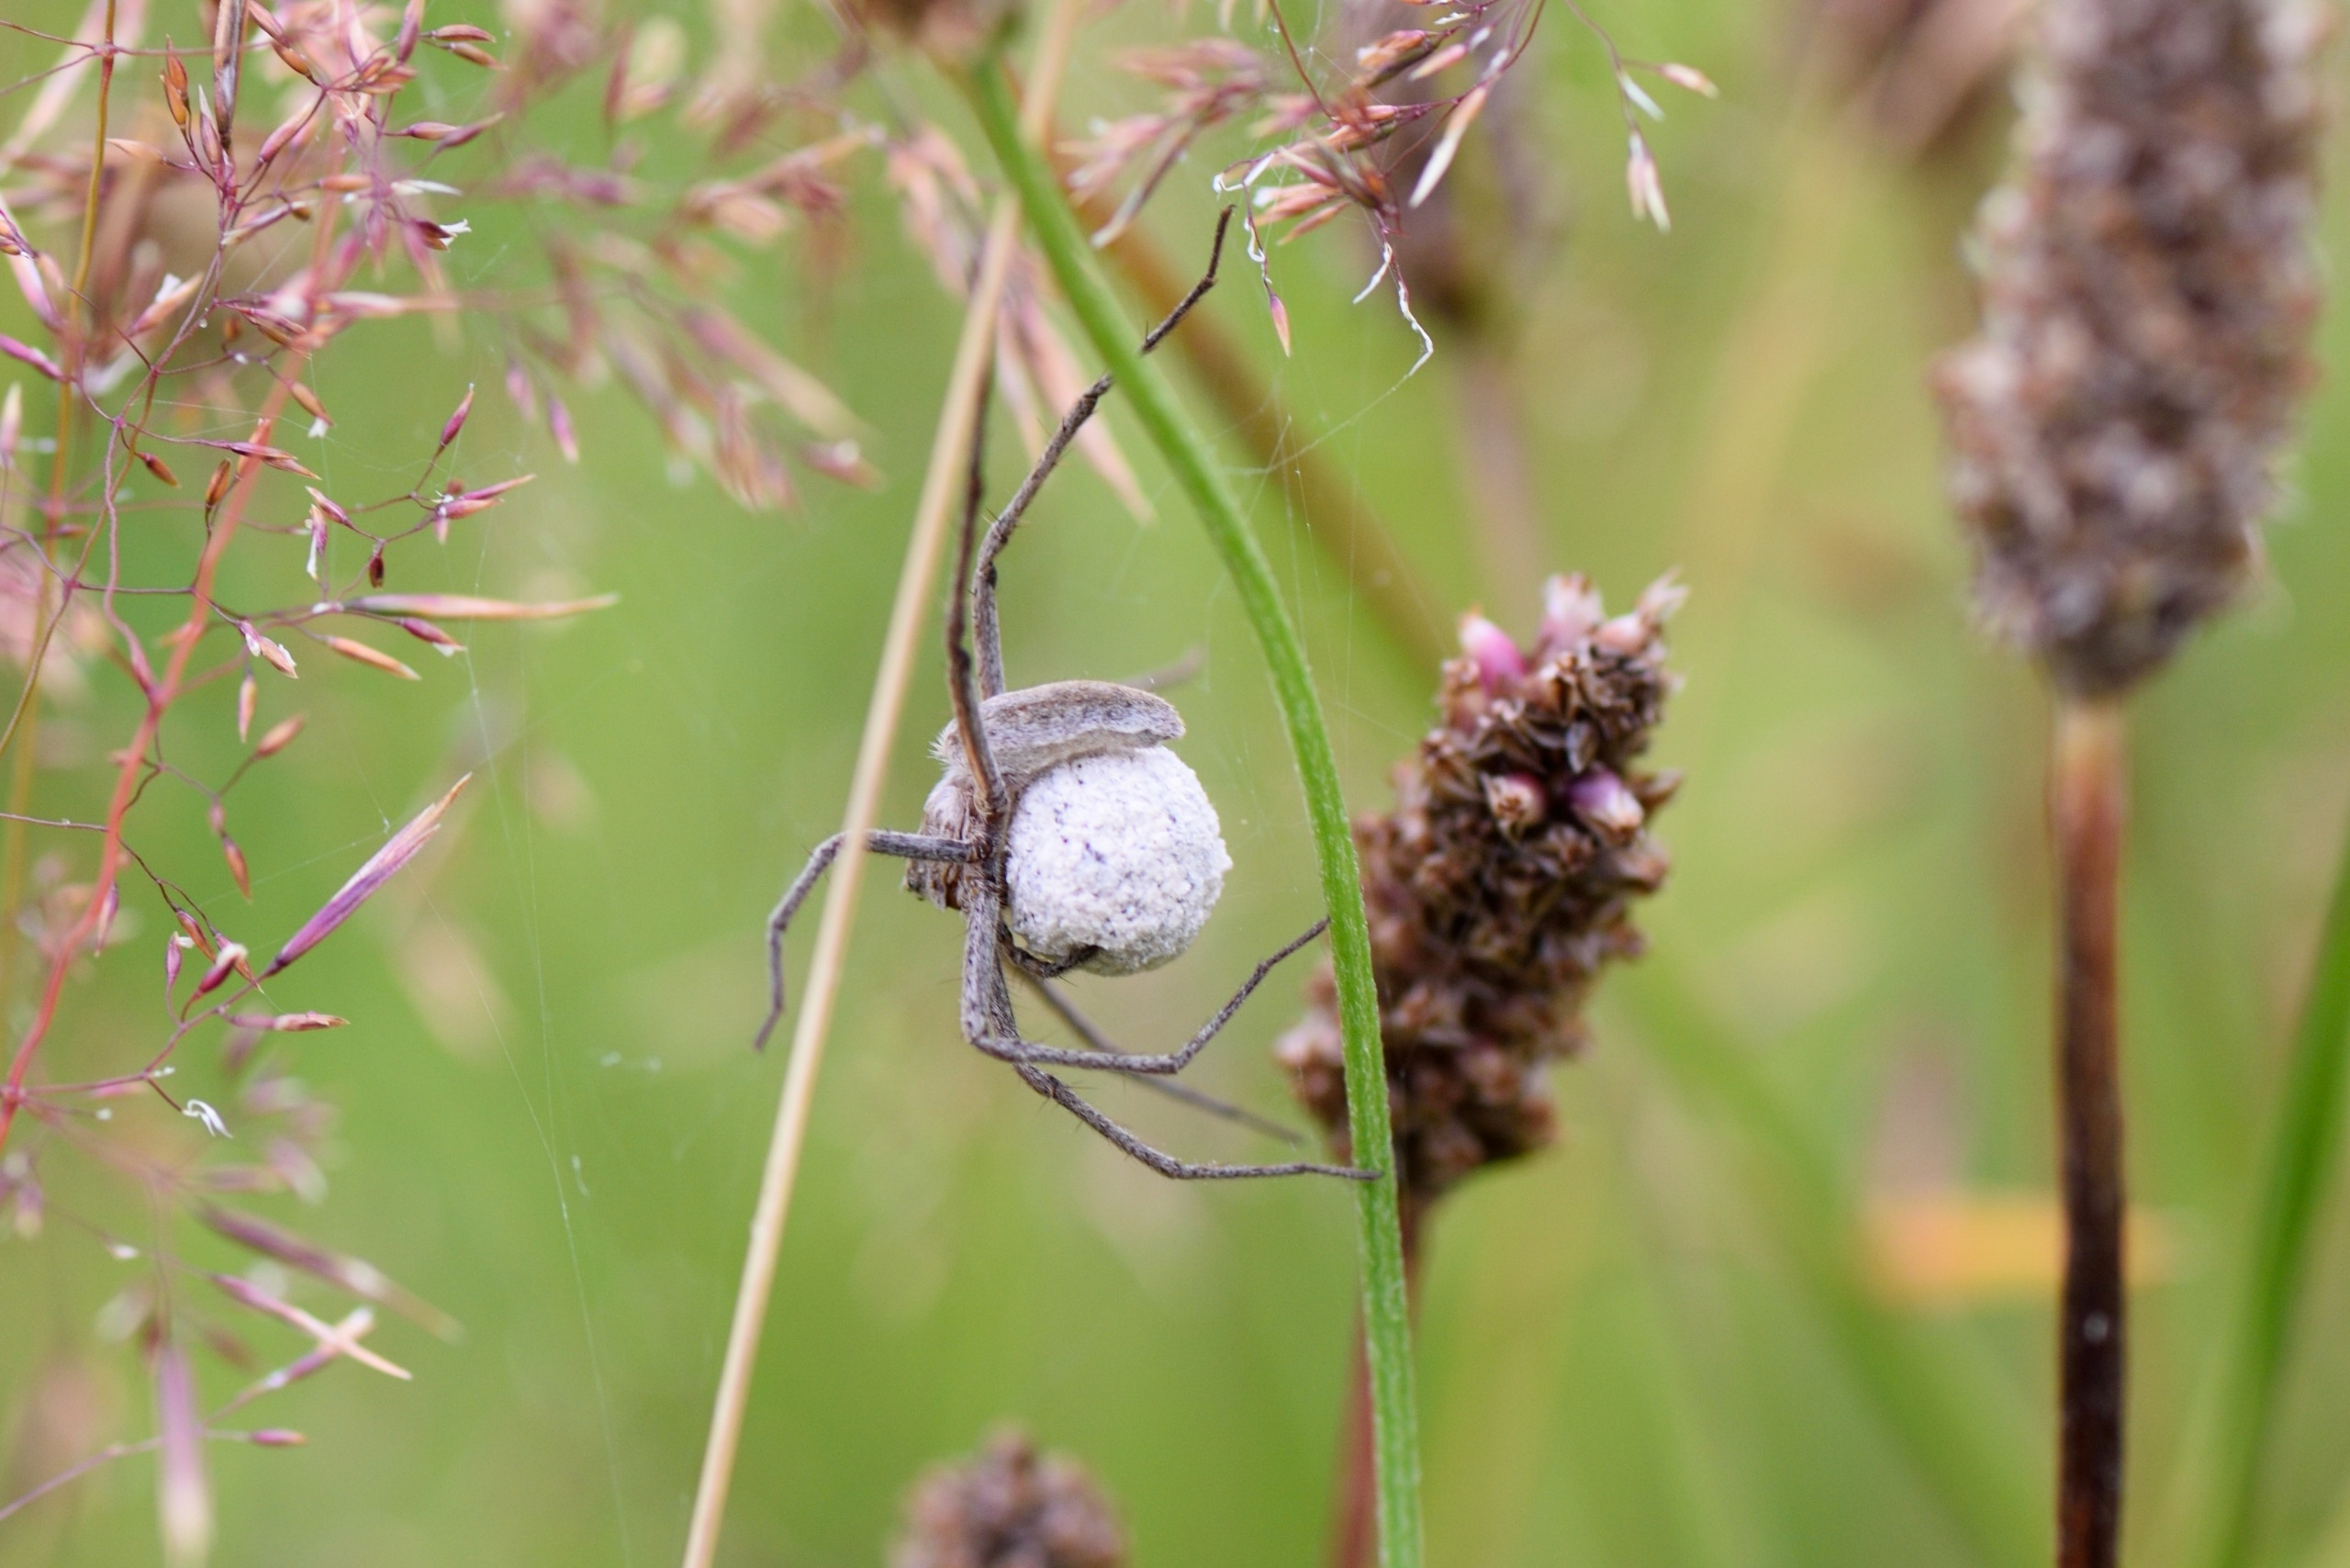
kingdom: Animalia
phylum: Arthropoda
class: Arachnida
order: Araneae
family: Pisauridae
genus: Pisaura
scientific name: Pisaura mirabilis
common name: Almindelig rovedderkop
